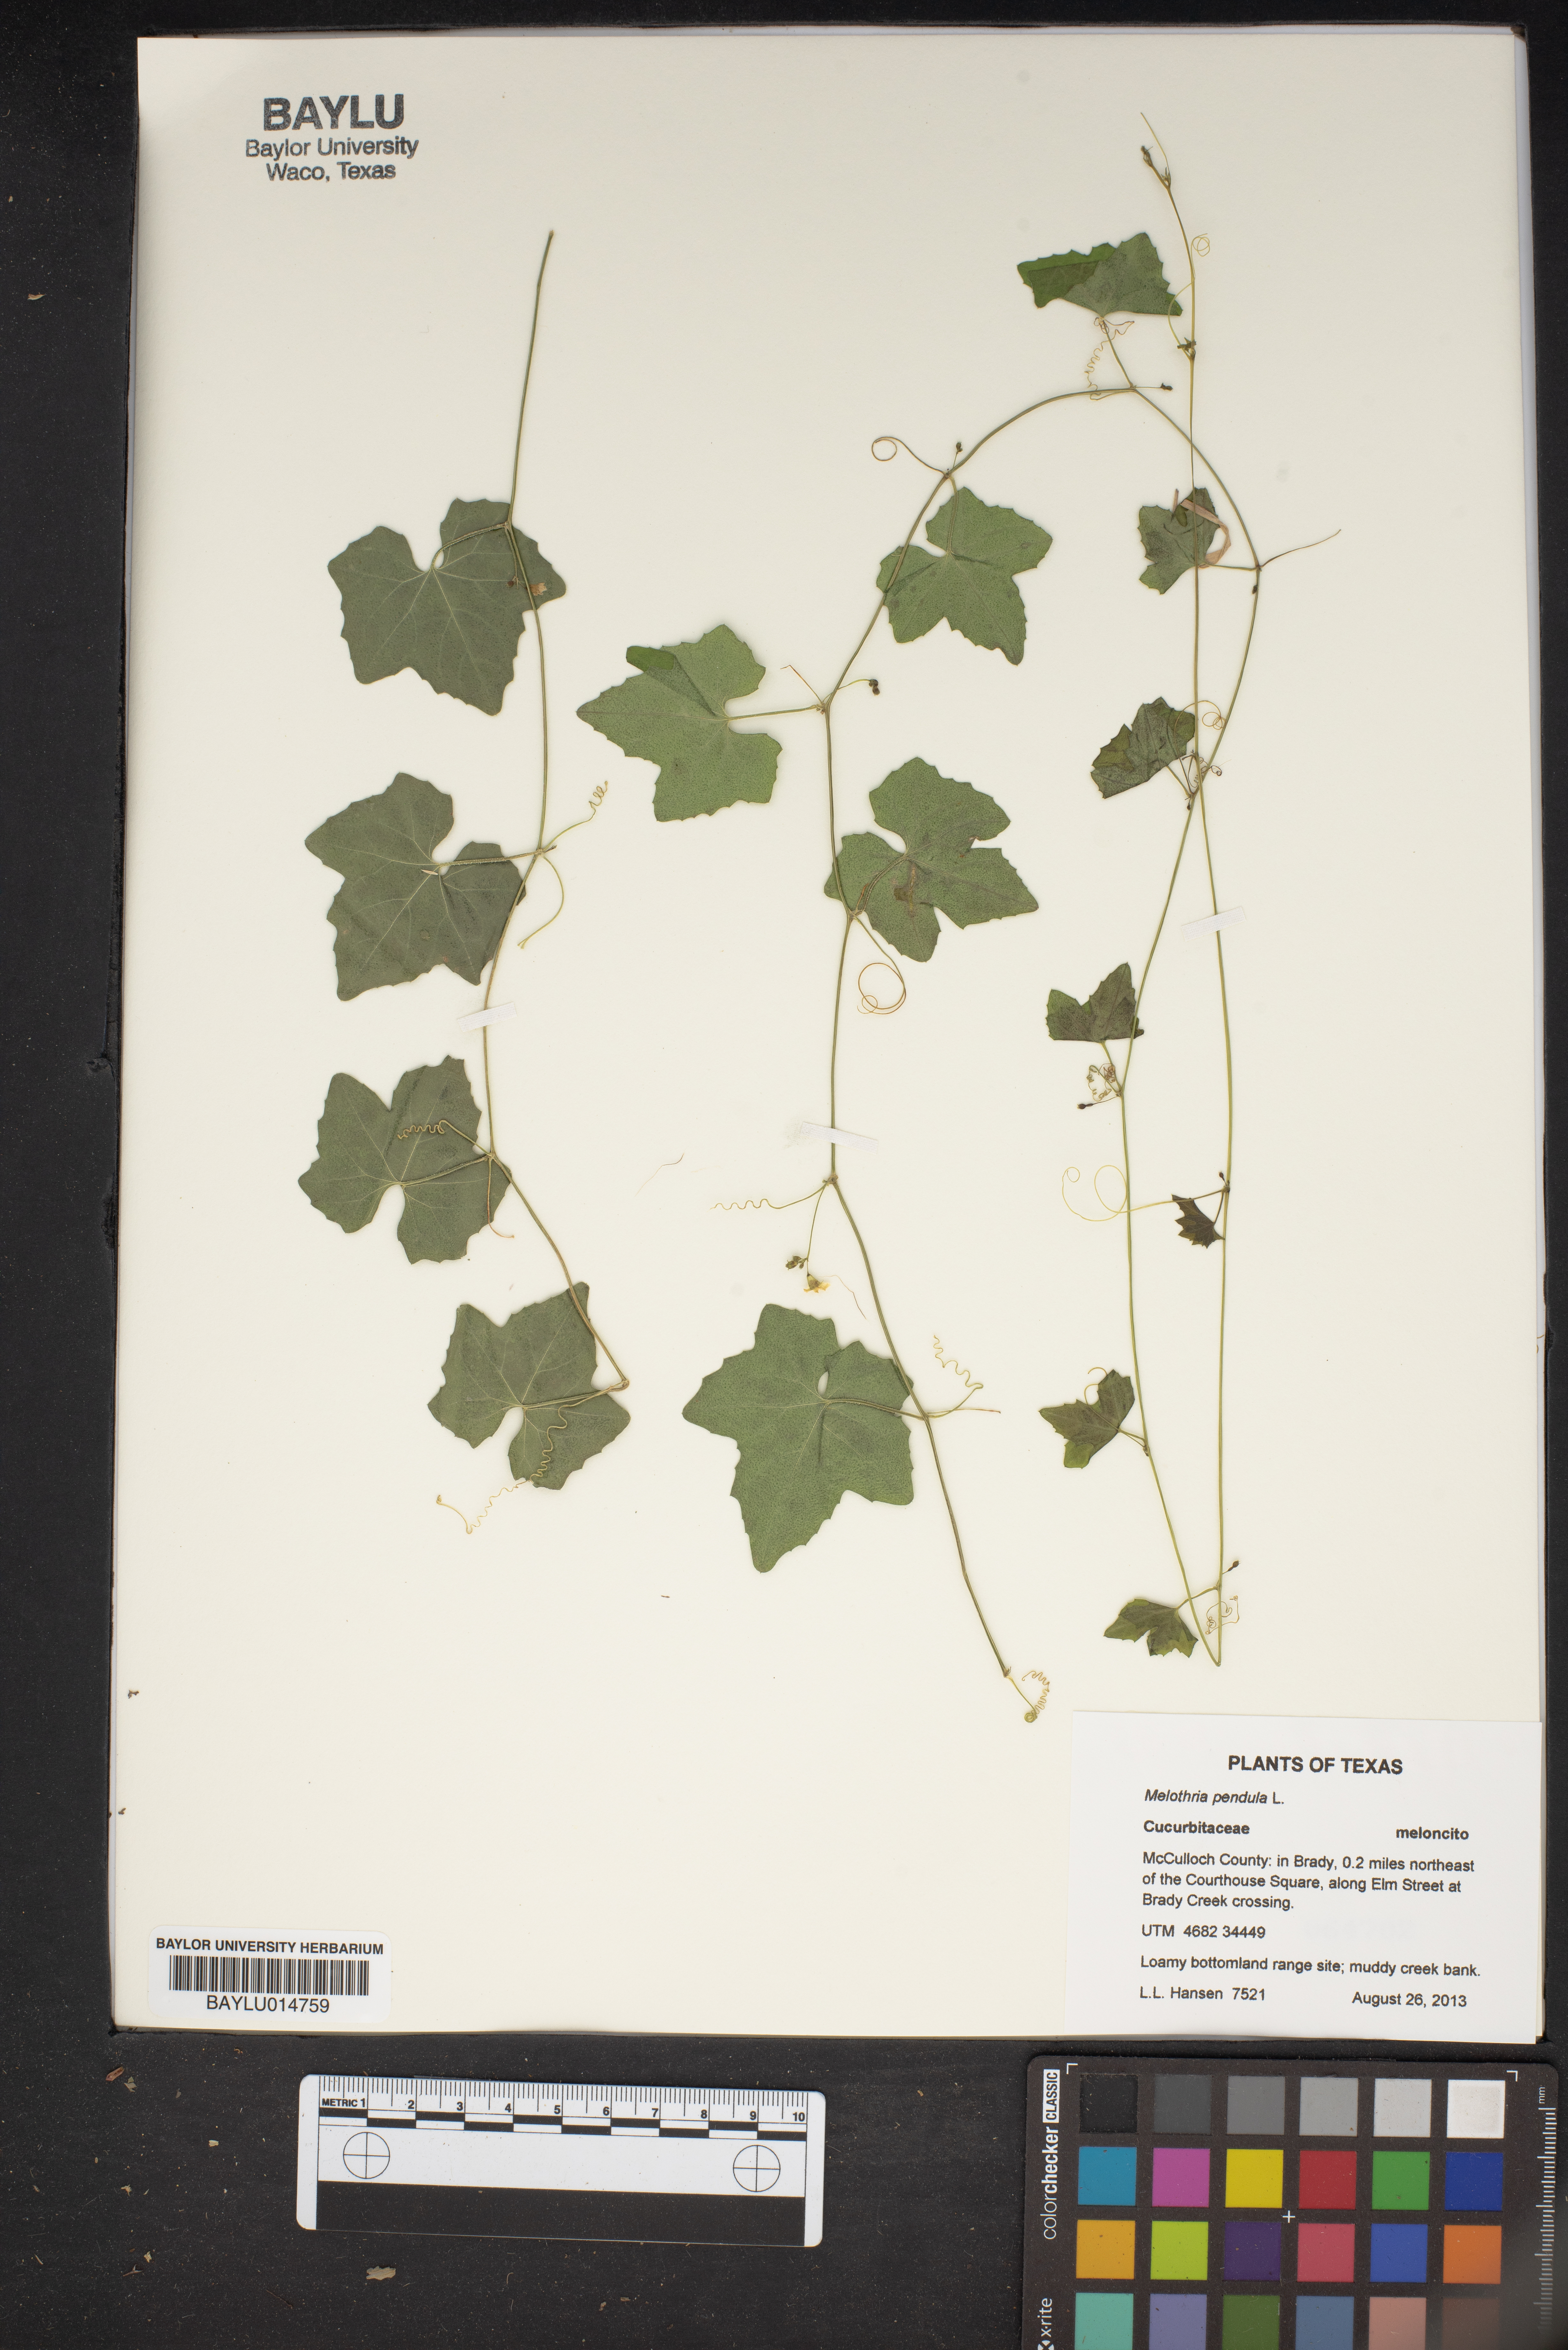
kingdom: Plantae
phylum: Tracheophyta
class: Magnoliopsida
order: Cucurbitales
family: Cucurbitaceae
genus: Melothria
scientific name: Melothria pendula
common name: Creeping-cucumber
